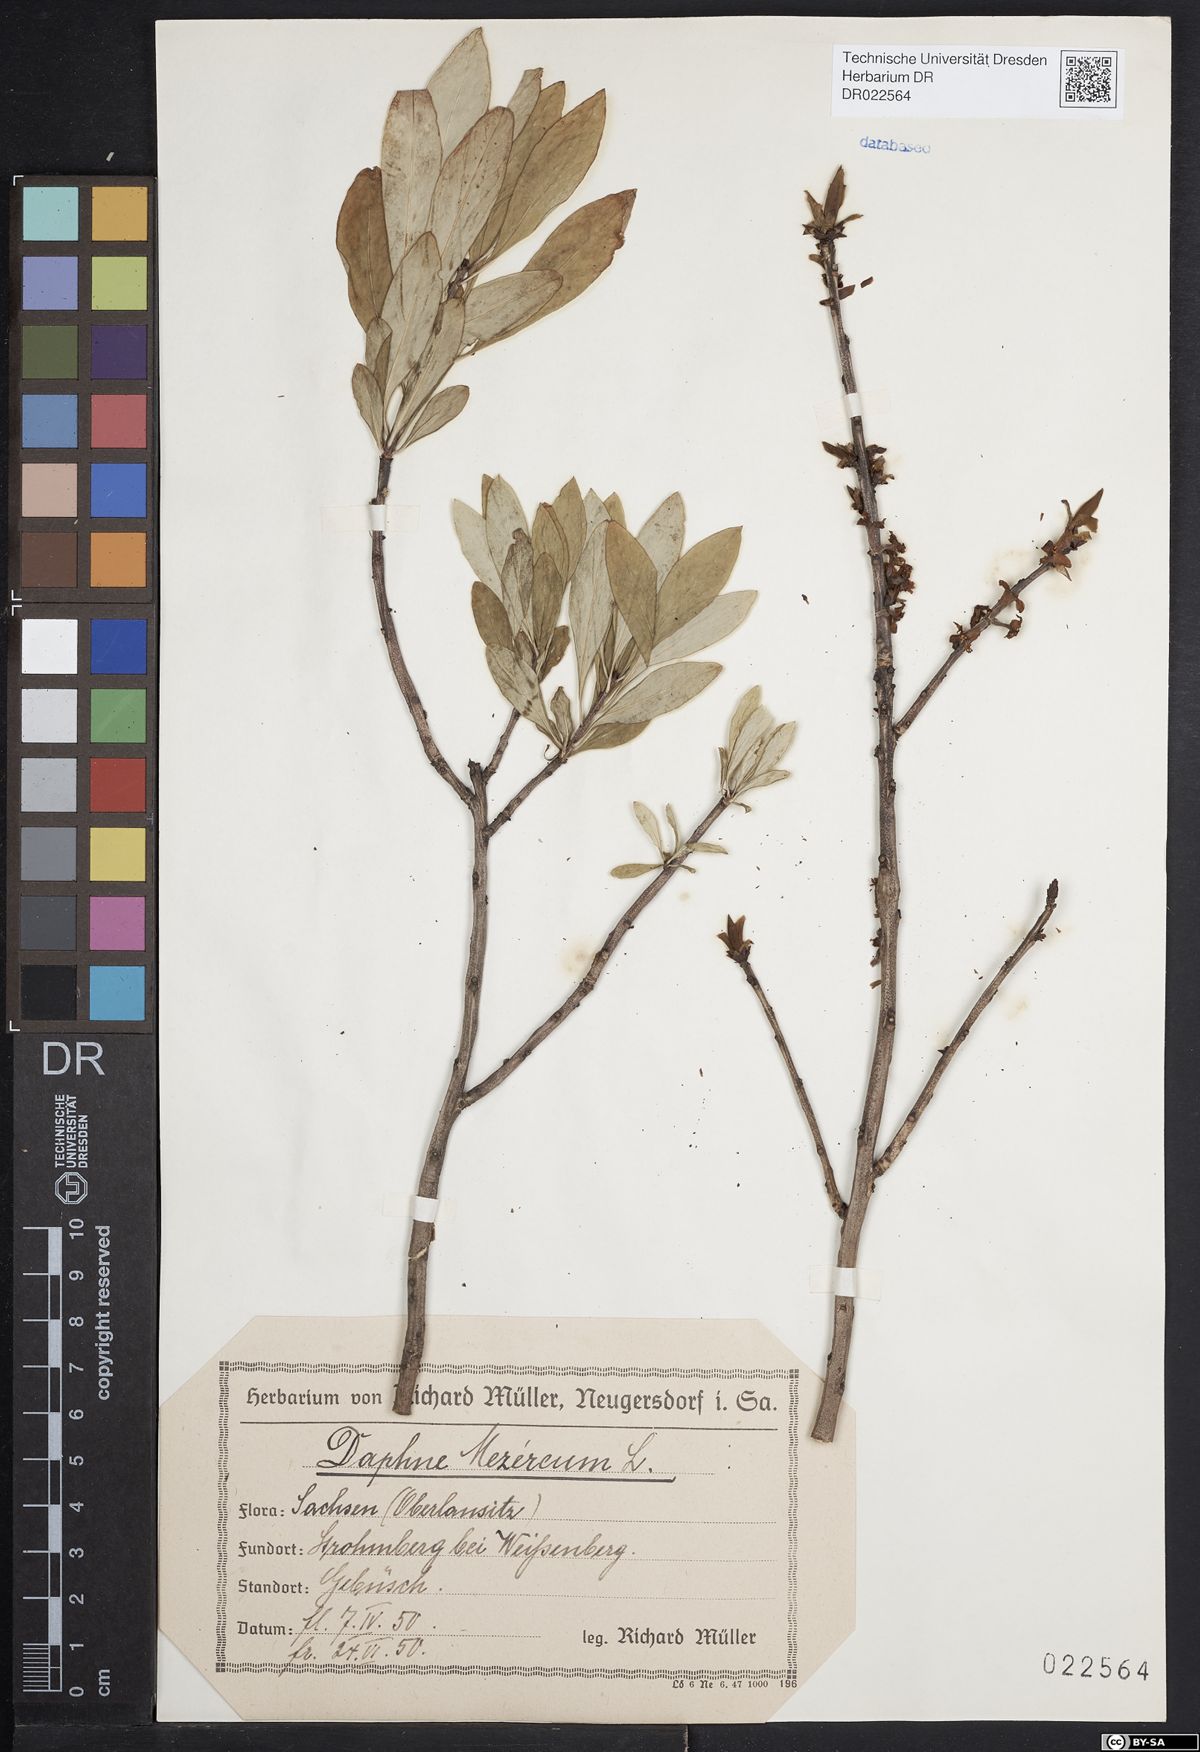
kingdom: Plantae
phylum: Tracheophyta
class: Magnoliopsida
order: Malvales
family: Thymelaeaceae
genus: Daphne
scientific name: Daphne mezereum
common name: Mezereon
